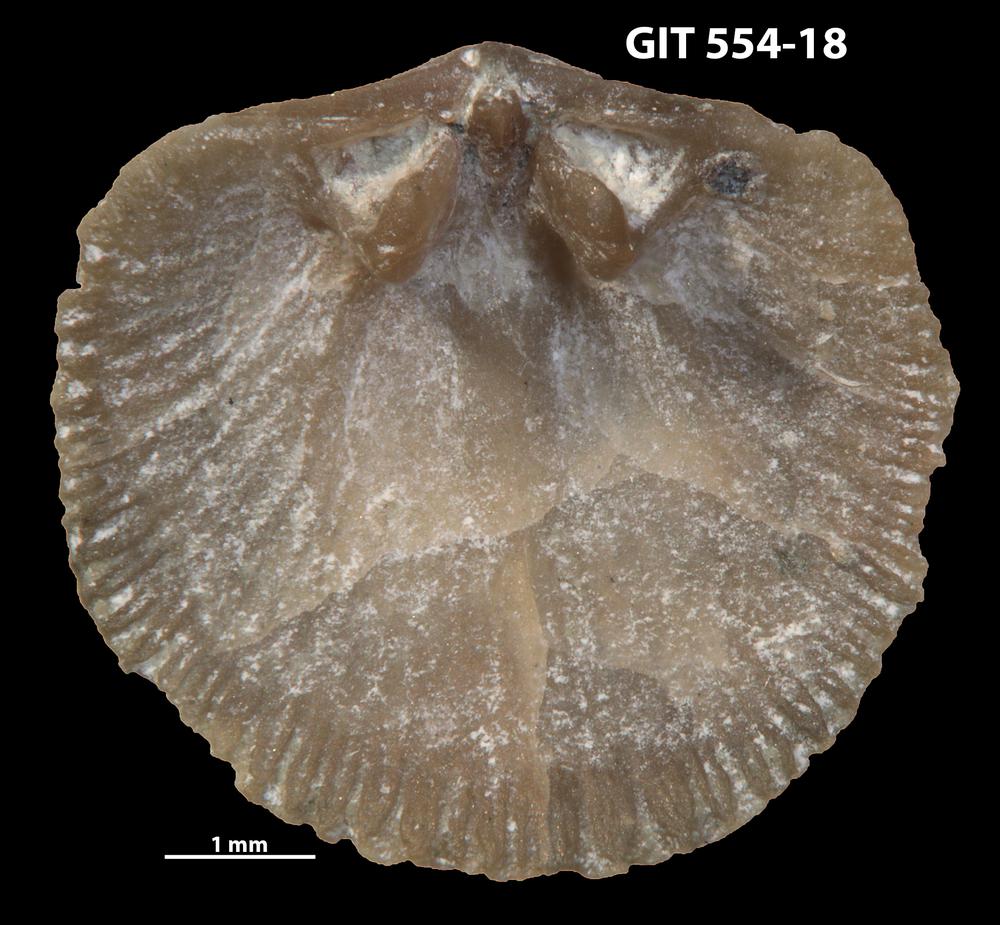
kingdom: Animalia
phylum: Brachiopoda
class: Rhynchonellata
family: Dalmanellidae
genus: Onniella
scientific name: Onniella trigona
